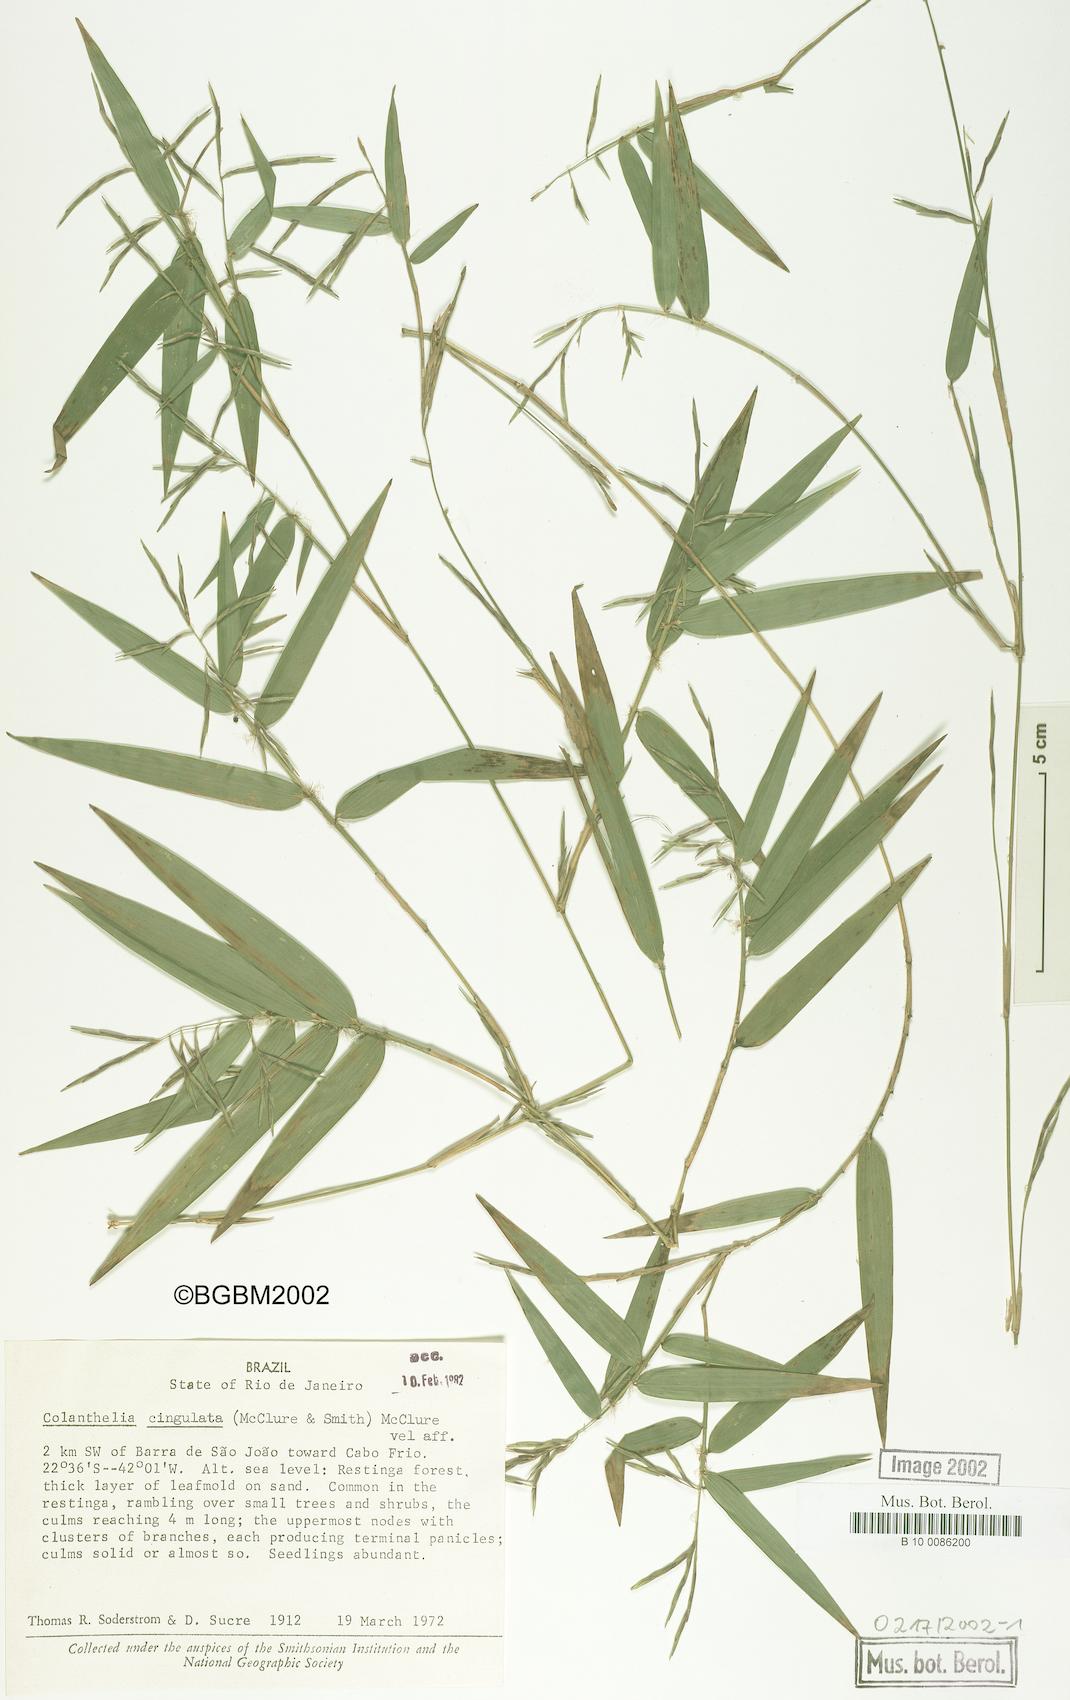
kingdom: Plantae
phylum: Tracheophyta
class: Liliopsida
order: Poales
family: Poaceae
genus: Colanthelia
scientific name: Colanthelia cingulata
